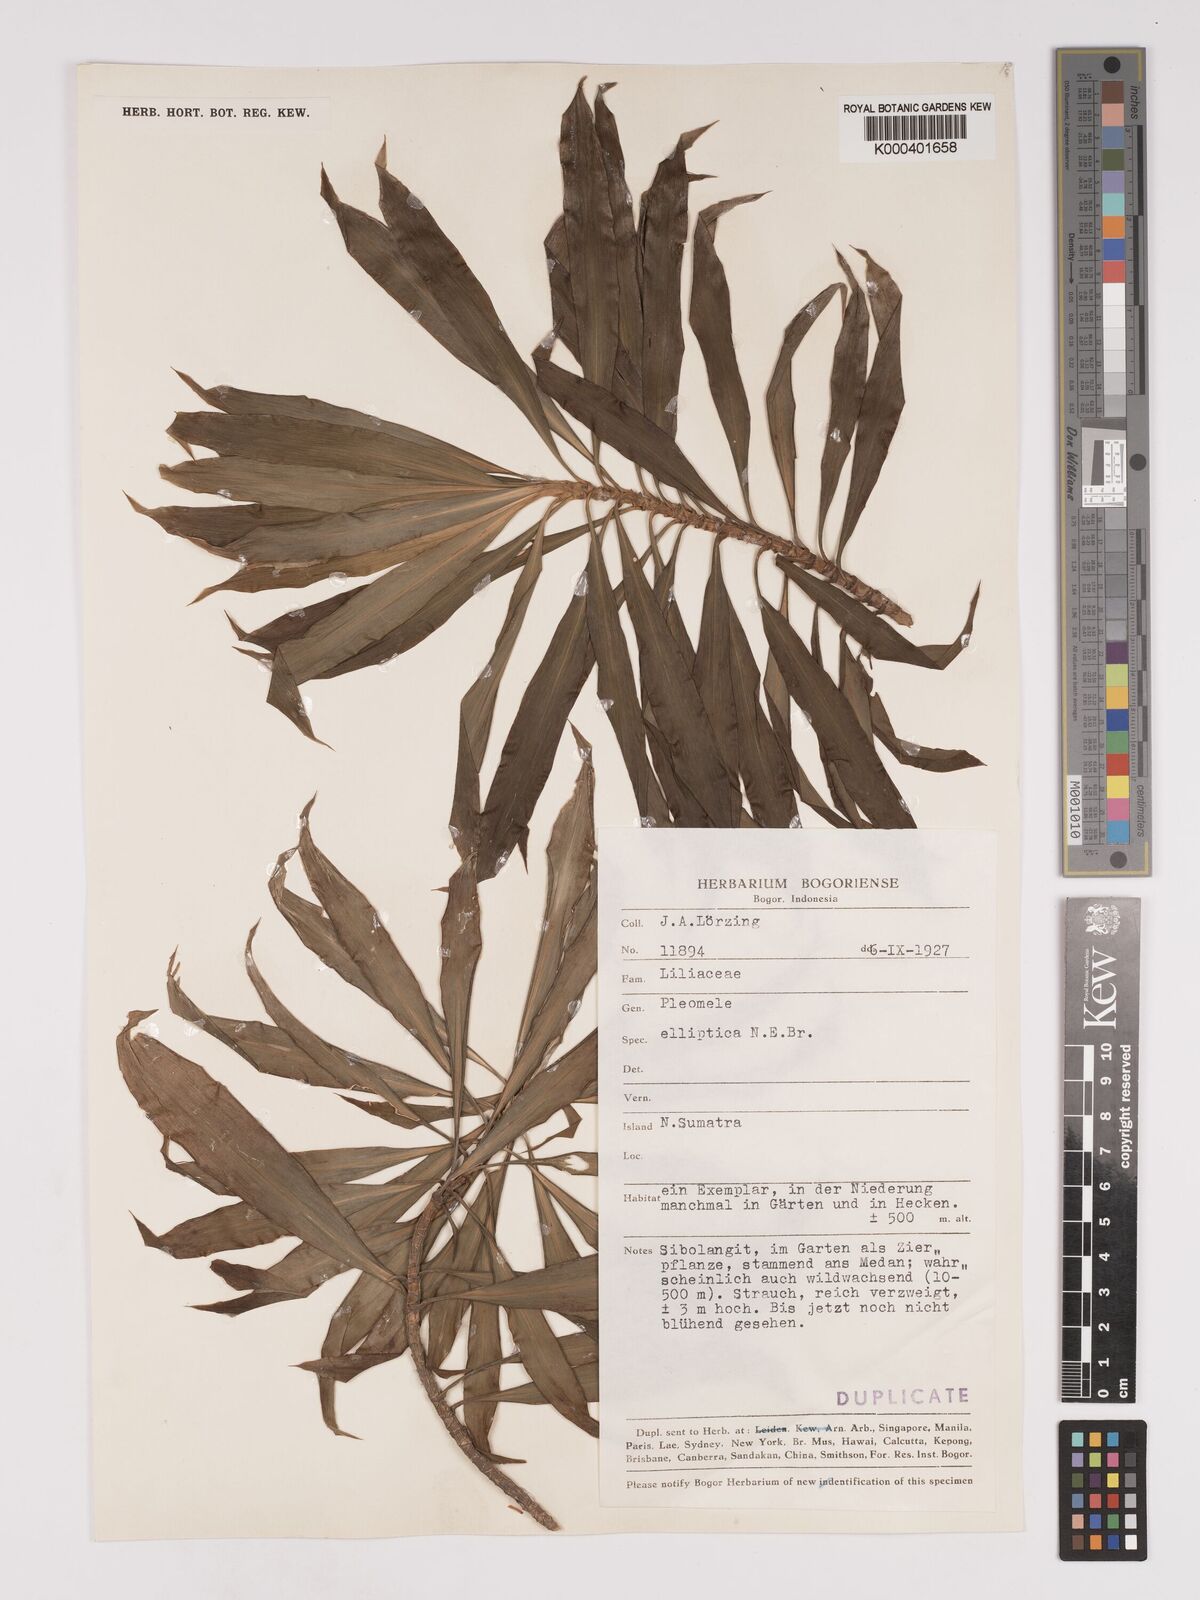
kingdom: Plantae
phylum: Tracheophyta
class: Liliopsida
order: Asparagales
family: Asparagaceae
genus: Dracaena
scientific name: Dracaena elliptica
